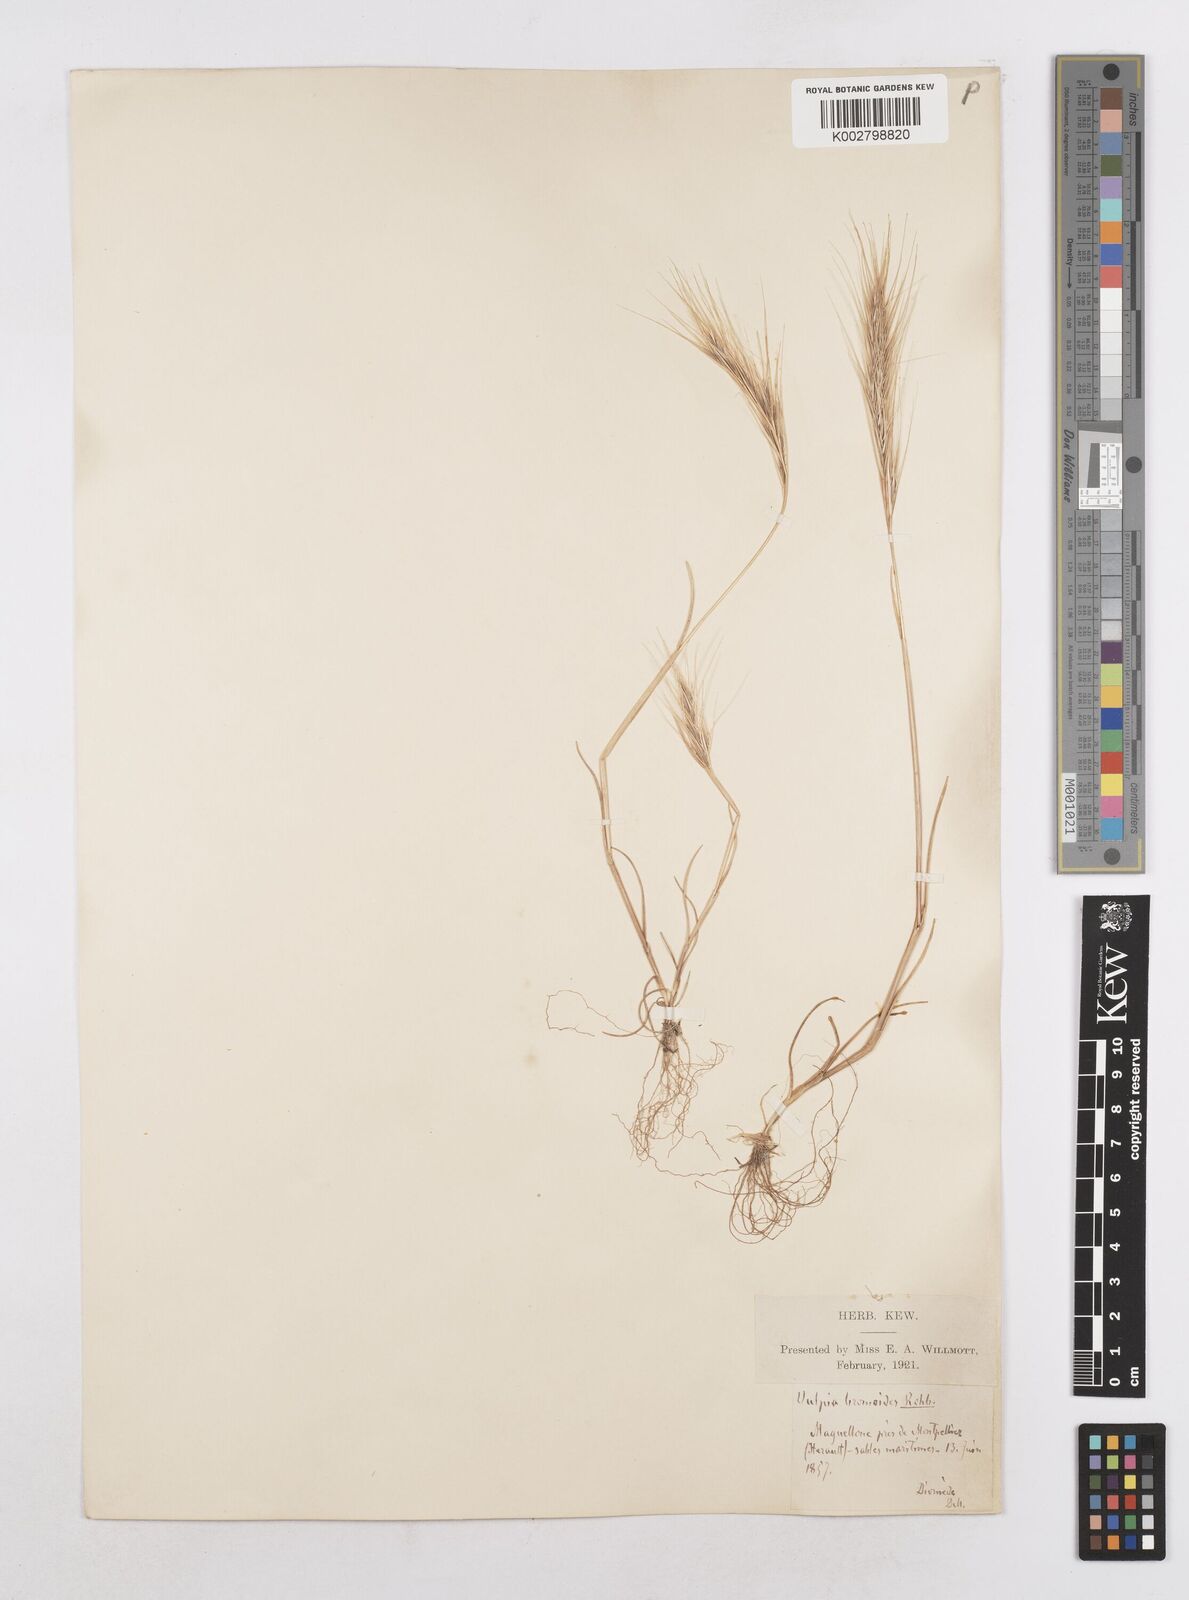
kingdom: Plantae
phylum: Tracheophyta
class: Liliopsida
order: Poales
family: Poaceae
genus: Festuca
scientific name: Festuca membranacea
